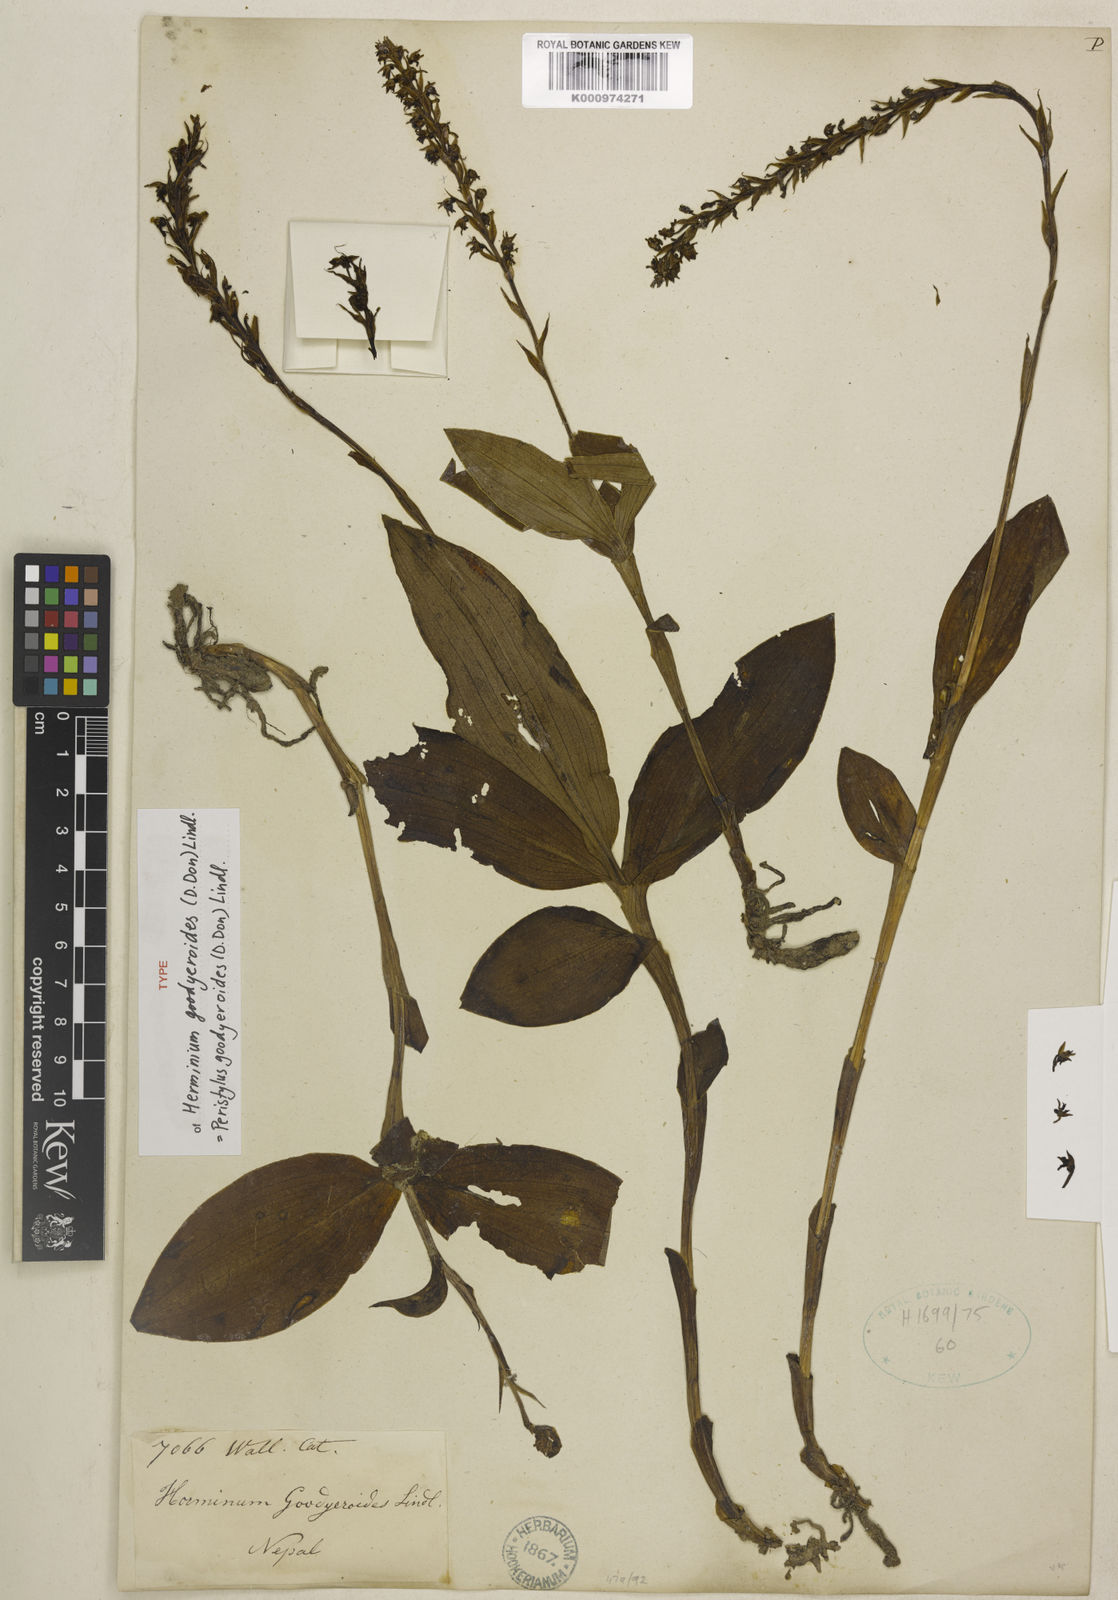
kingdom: Plantae
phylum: Tracheophyta
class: Liliopsida
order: Asparagales
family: Orchidaceae
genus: Peristylus
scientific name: Peristylus goodyeroides
